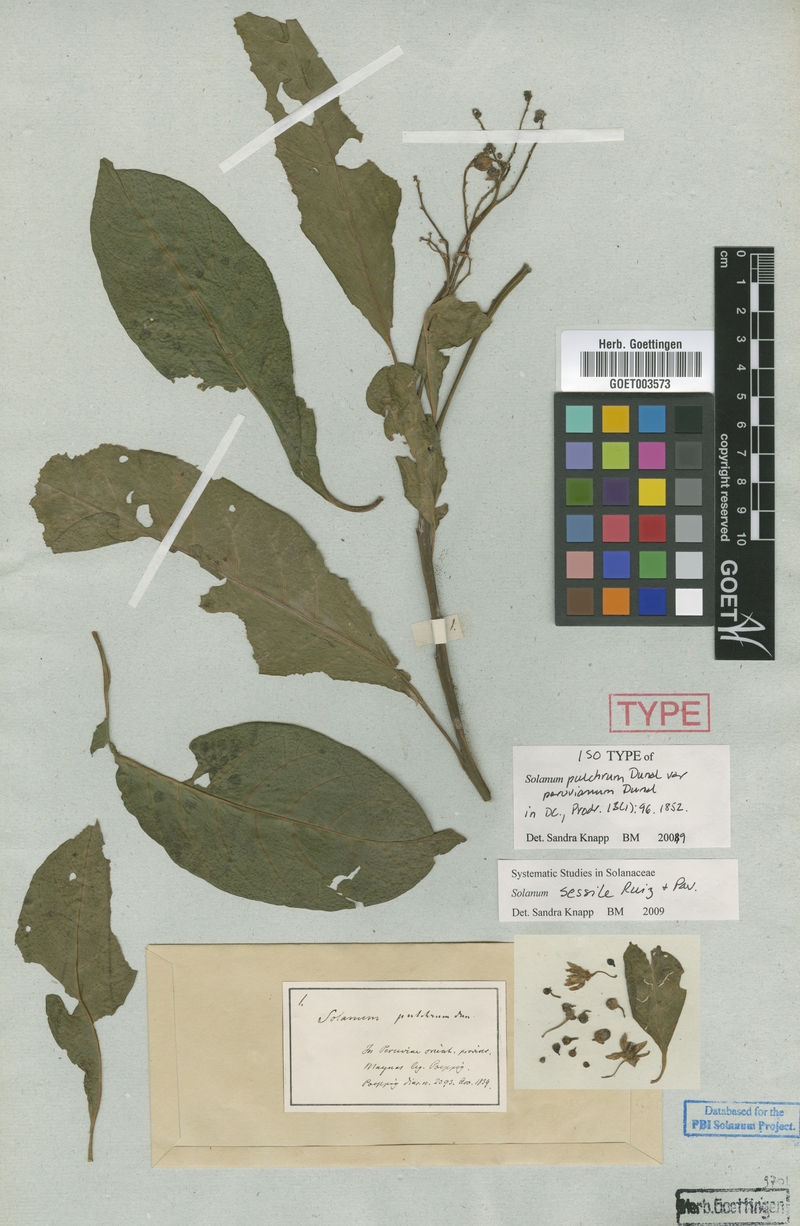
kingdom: Plantae
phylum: Tracheophyta
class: Magnoliopsida
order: Solanales
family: Solanaceae
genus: Solanum
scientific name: Solanum sessile
